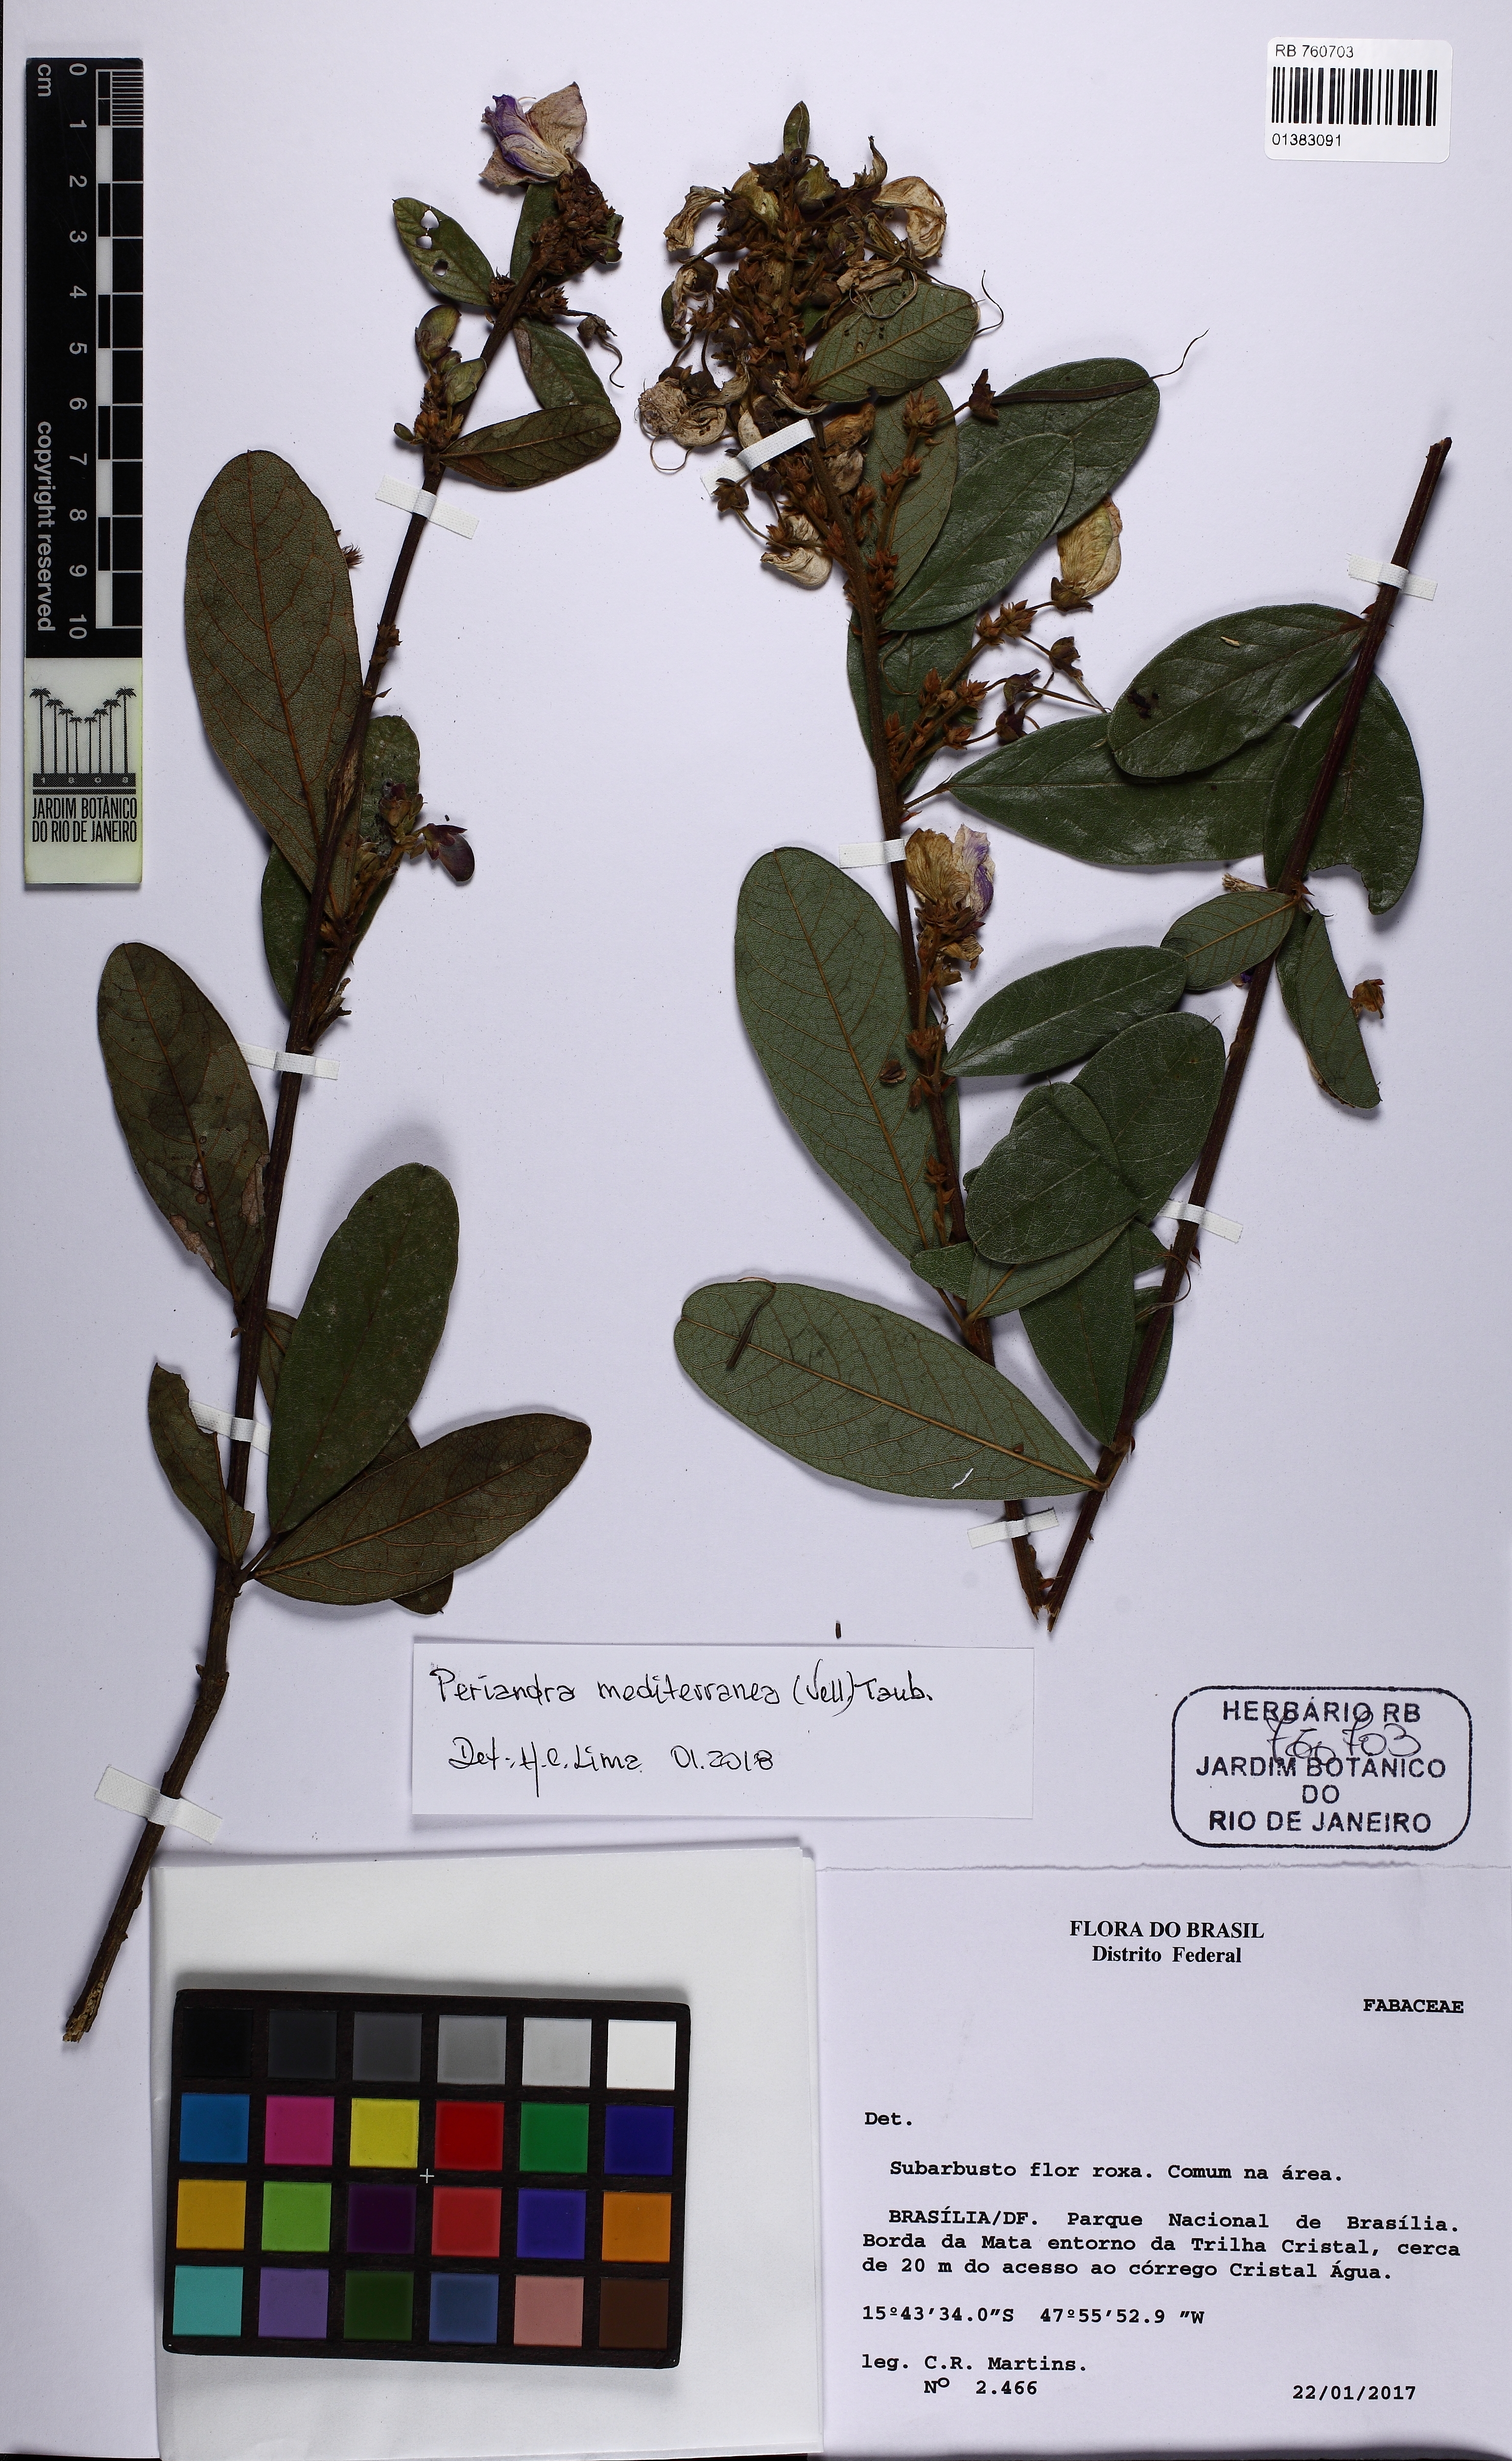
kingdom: Plantae
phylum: Tracheophyta
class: Magnoliopsida
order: Fabales
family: Fabaceae
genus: Periandra
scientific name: Periandra mediterranea
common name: Brazilian licorice
